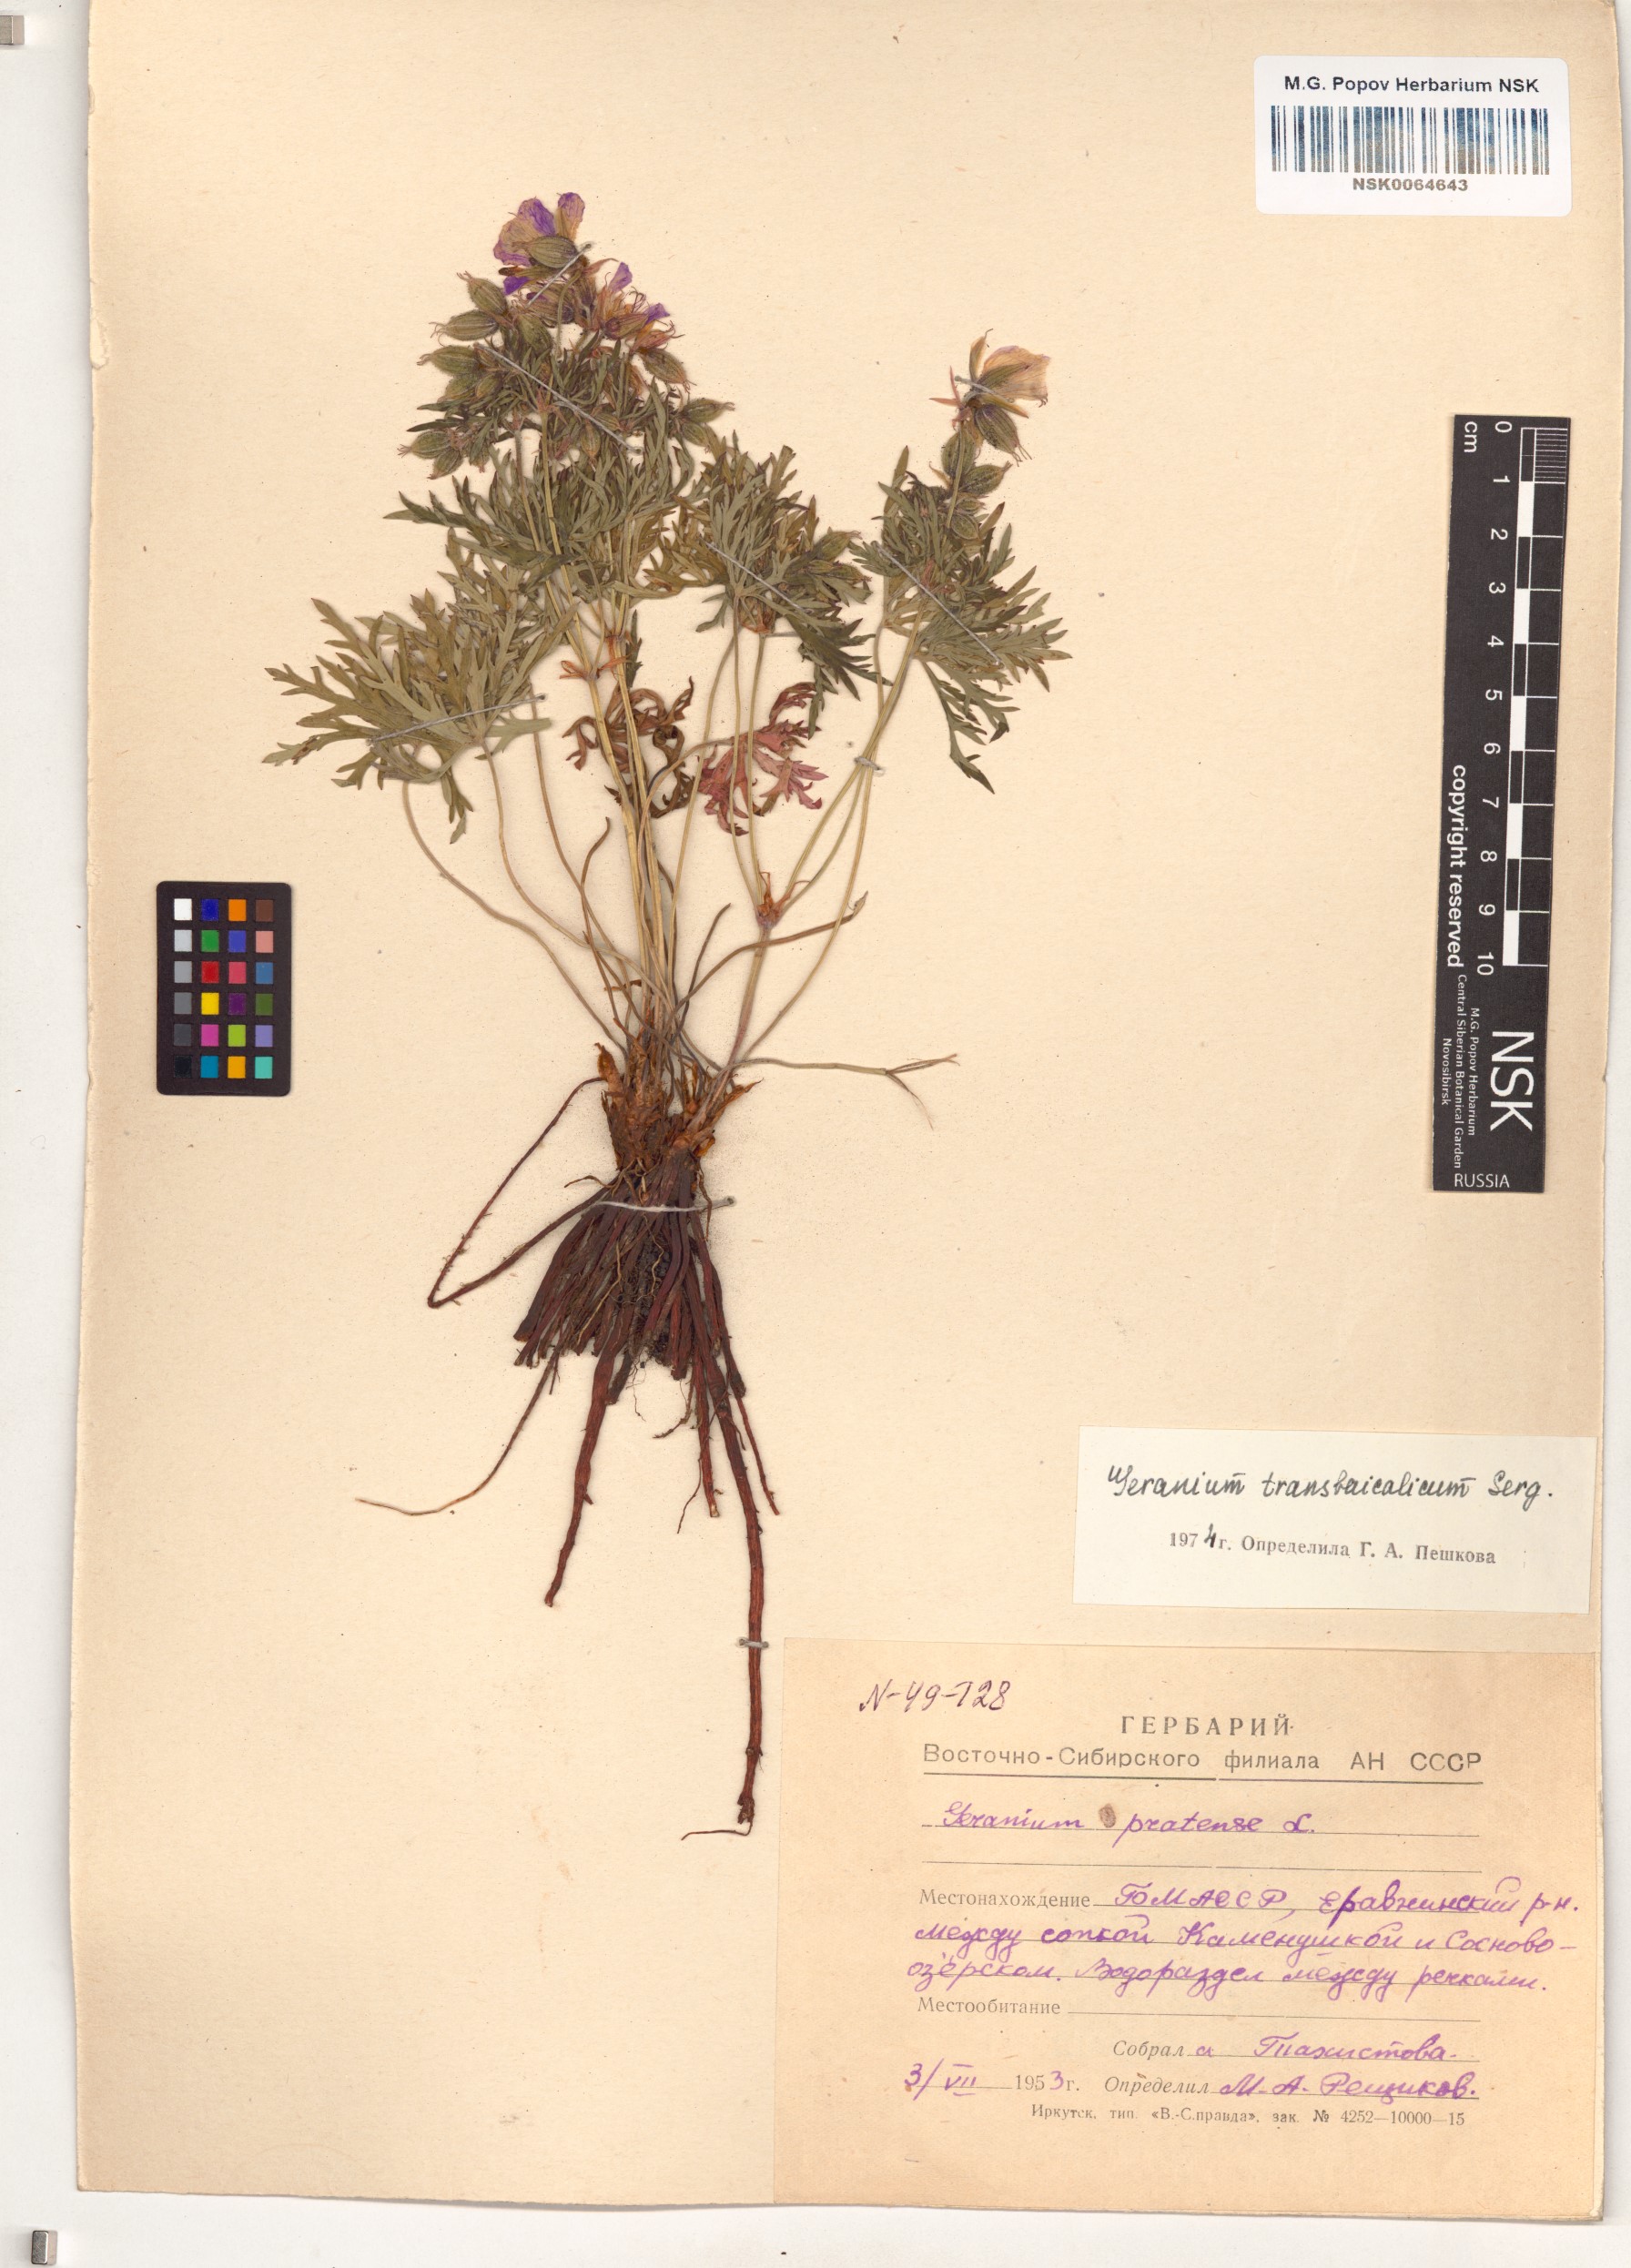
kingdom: Plantae
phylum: Tracheophyta
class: Magnoliopsida
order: Geraniales
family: Geraniaceae
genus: Geranium
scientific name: Geranium pratense
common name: Meadow crane's-bill
